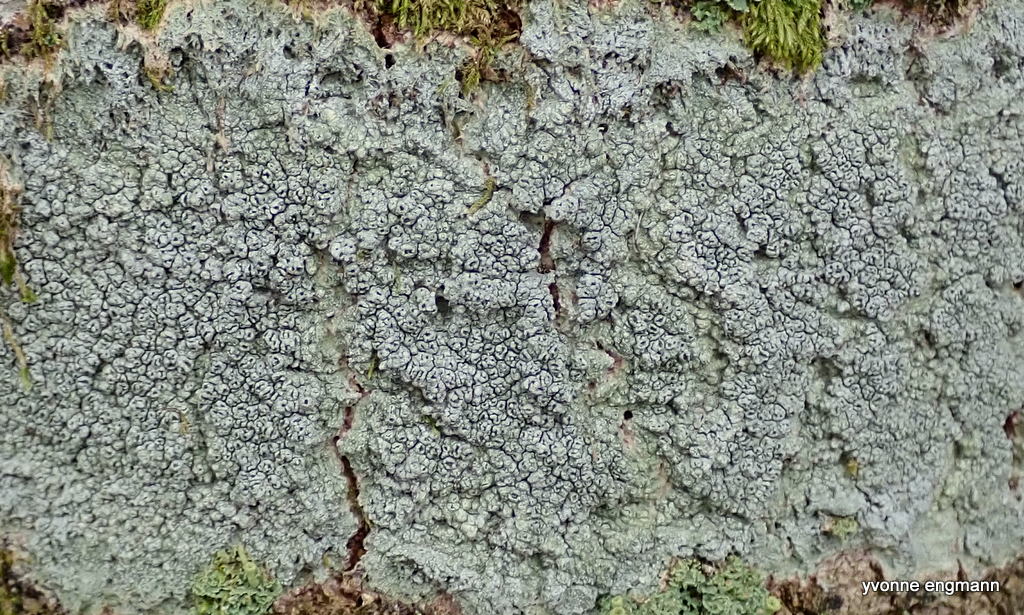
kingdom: Fungi
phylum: Ascomycota
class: Lecanoromycetes
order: Pertusariales
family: Pertusariaceae
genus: Pertusaria
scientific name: Pertusaria hymenea
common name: åben prikvortelav
